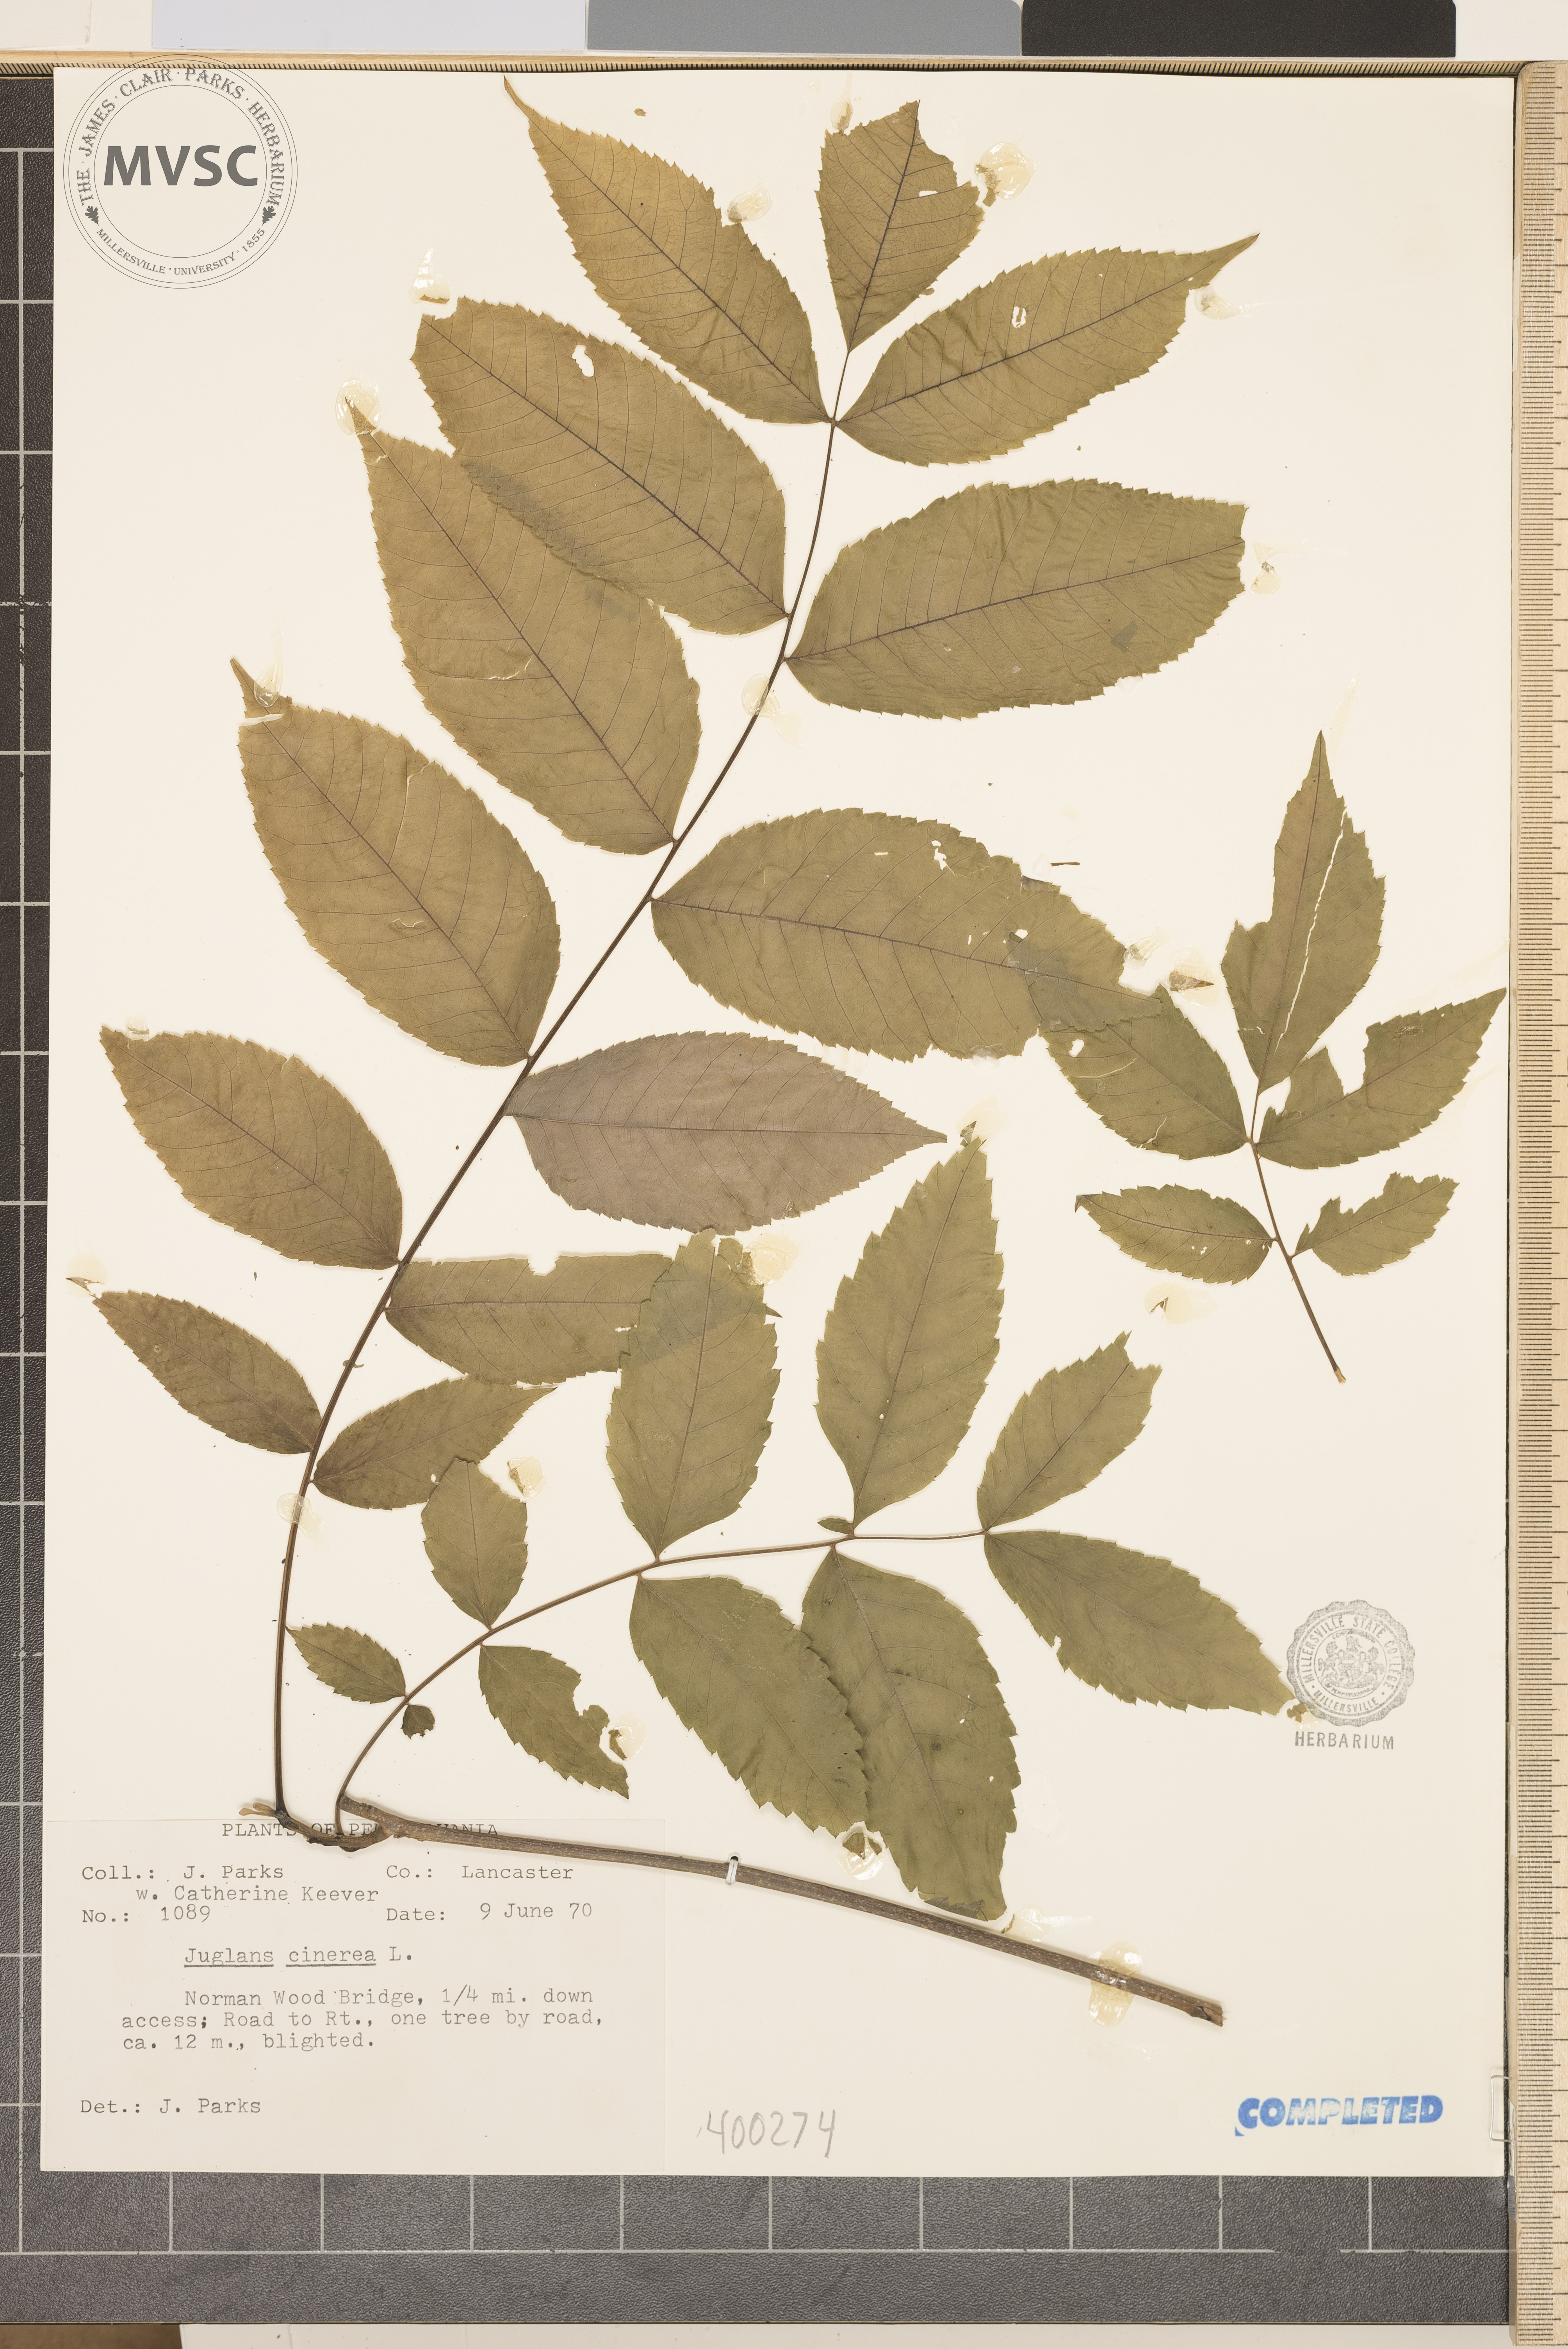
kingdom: Plantae
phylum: Tracheophyta
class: Magnoliopsida
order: Fagales
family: Juglandaceae
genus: Juglans
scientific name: Juglans cinerea
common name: walnut
